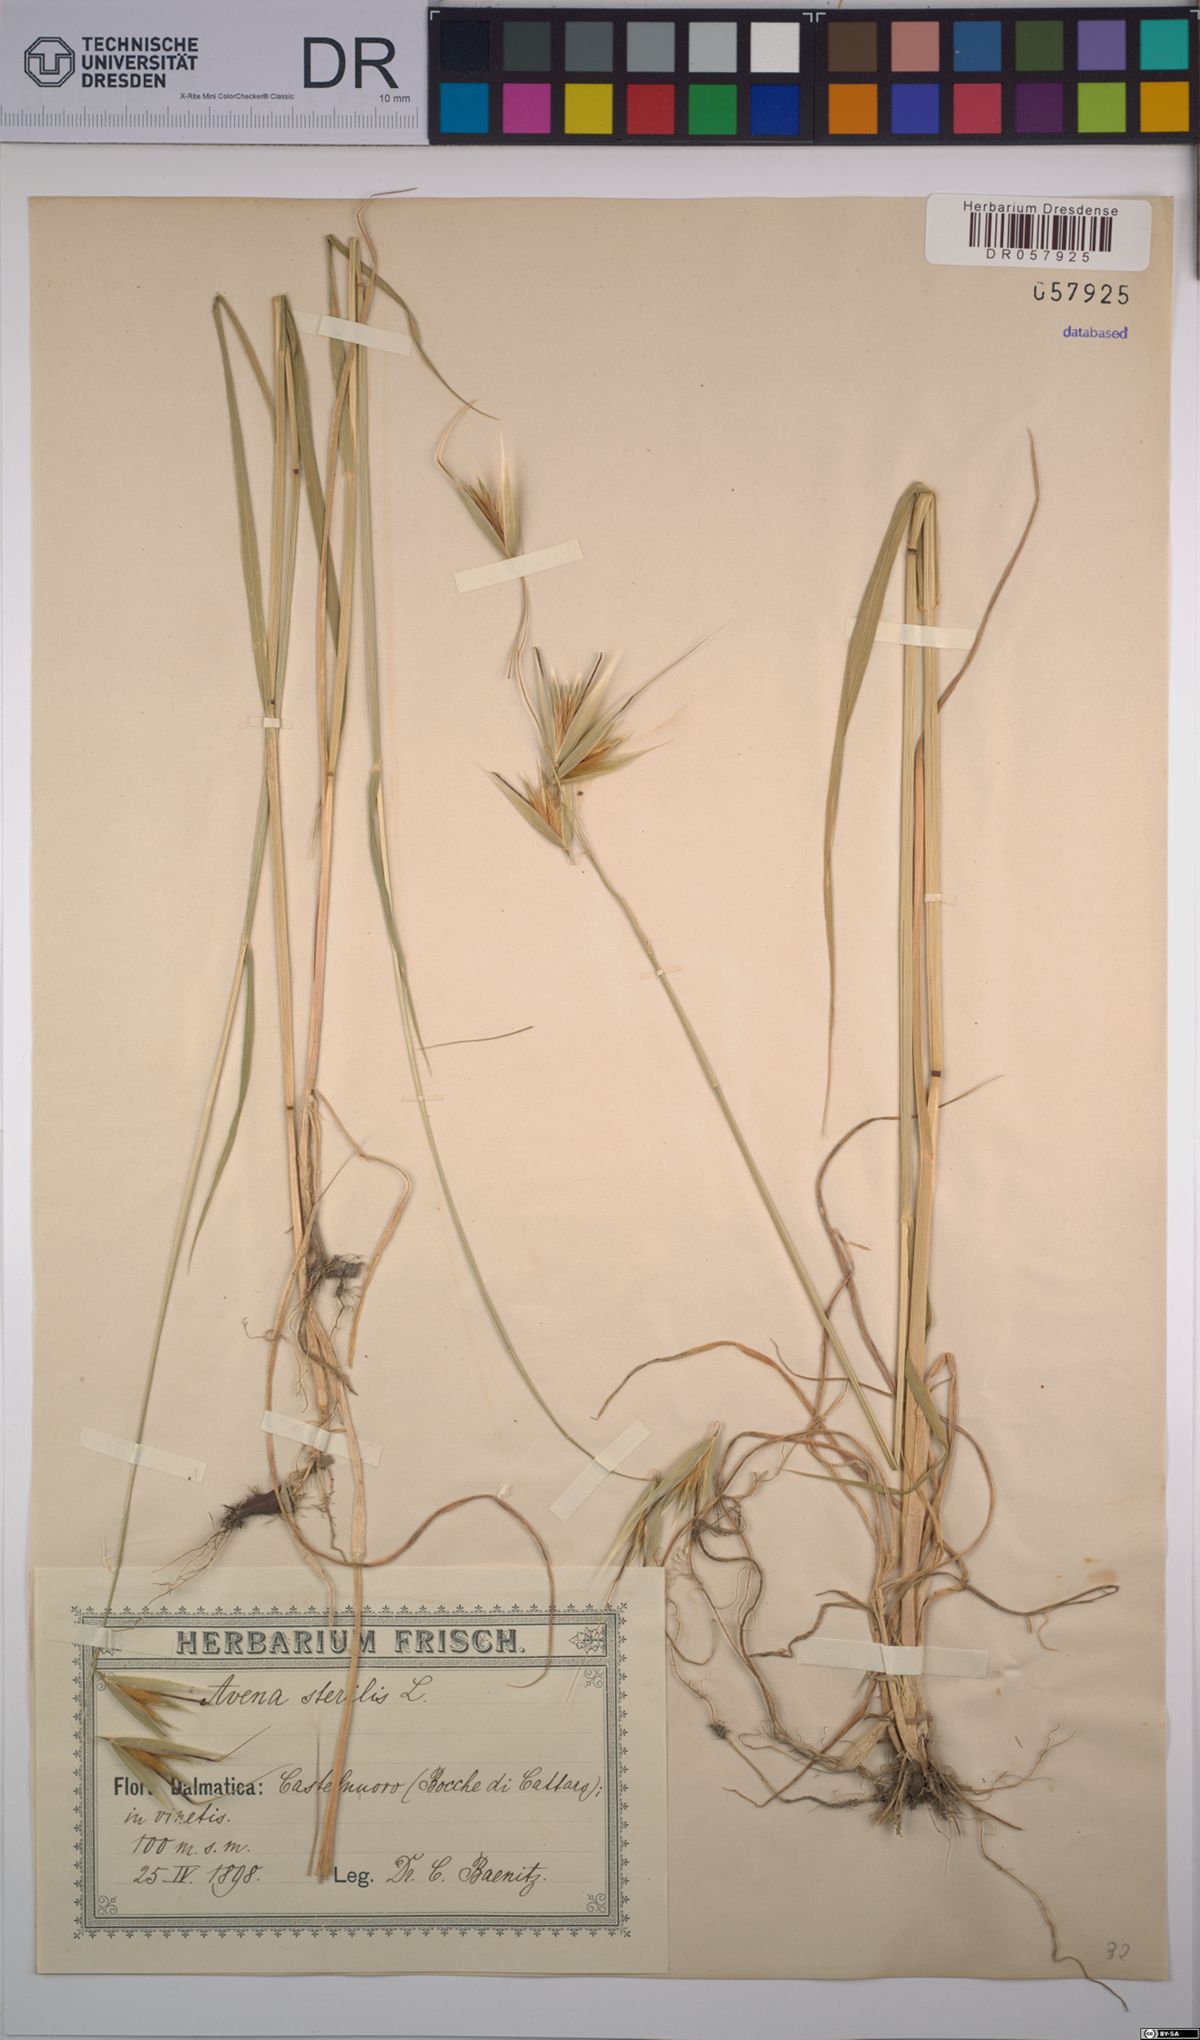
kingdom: Plantae
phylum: Tracheophyta
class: Liliopsida
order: Poales
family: Poaceae
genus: Avena
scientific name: Avena sterilis
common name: Animated oat
